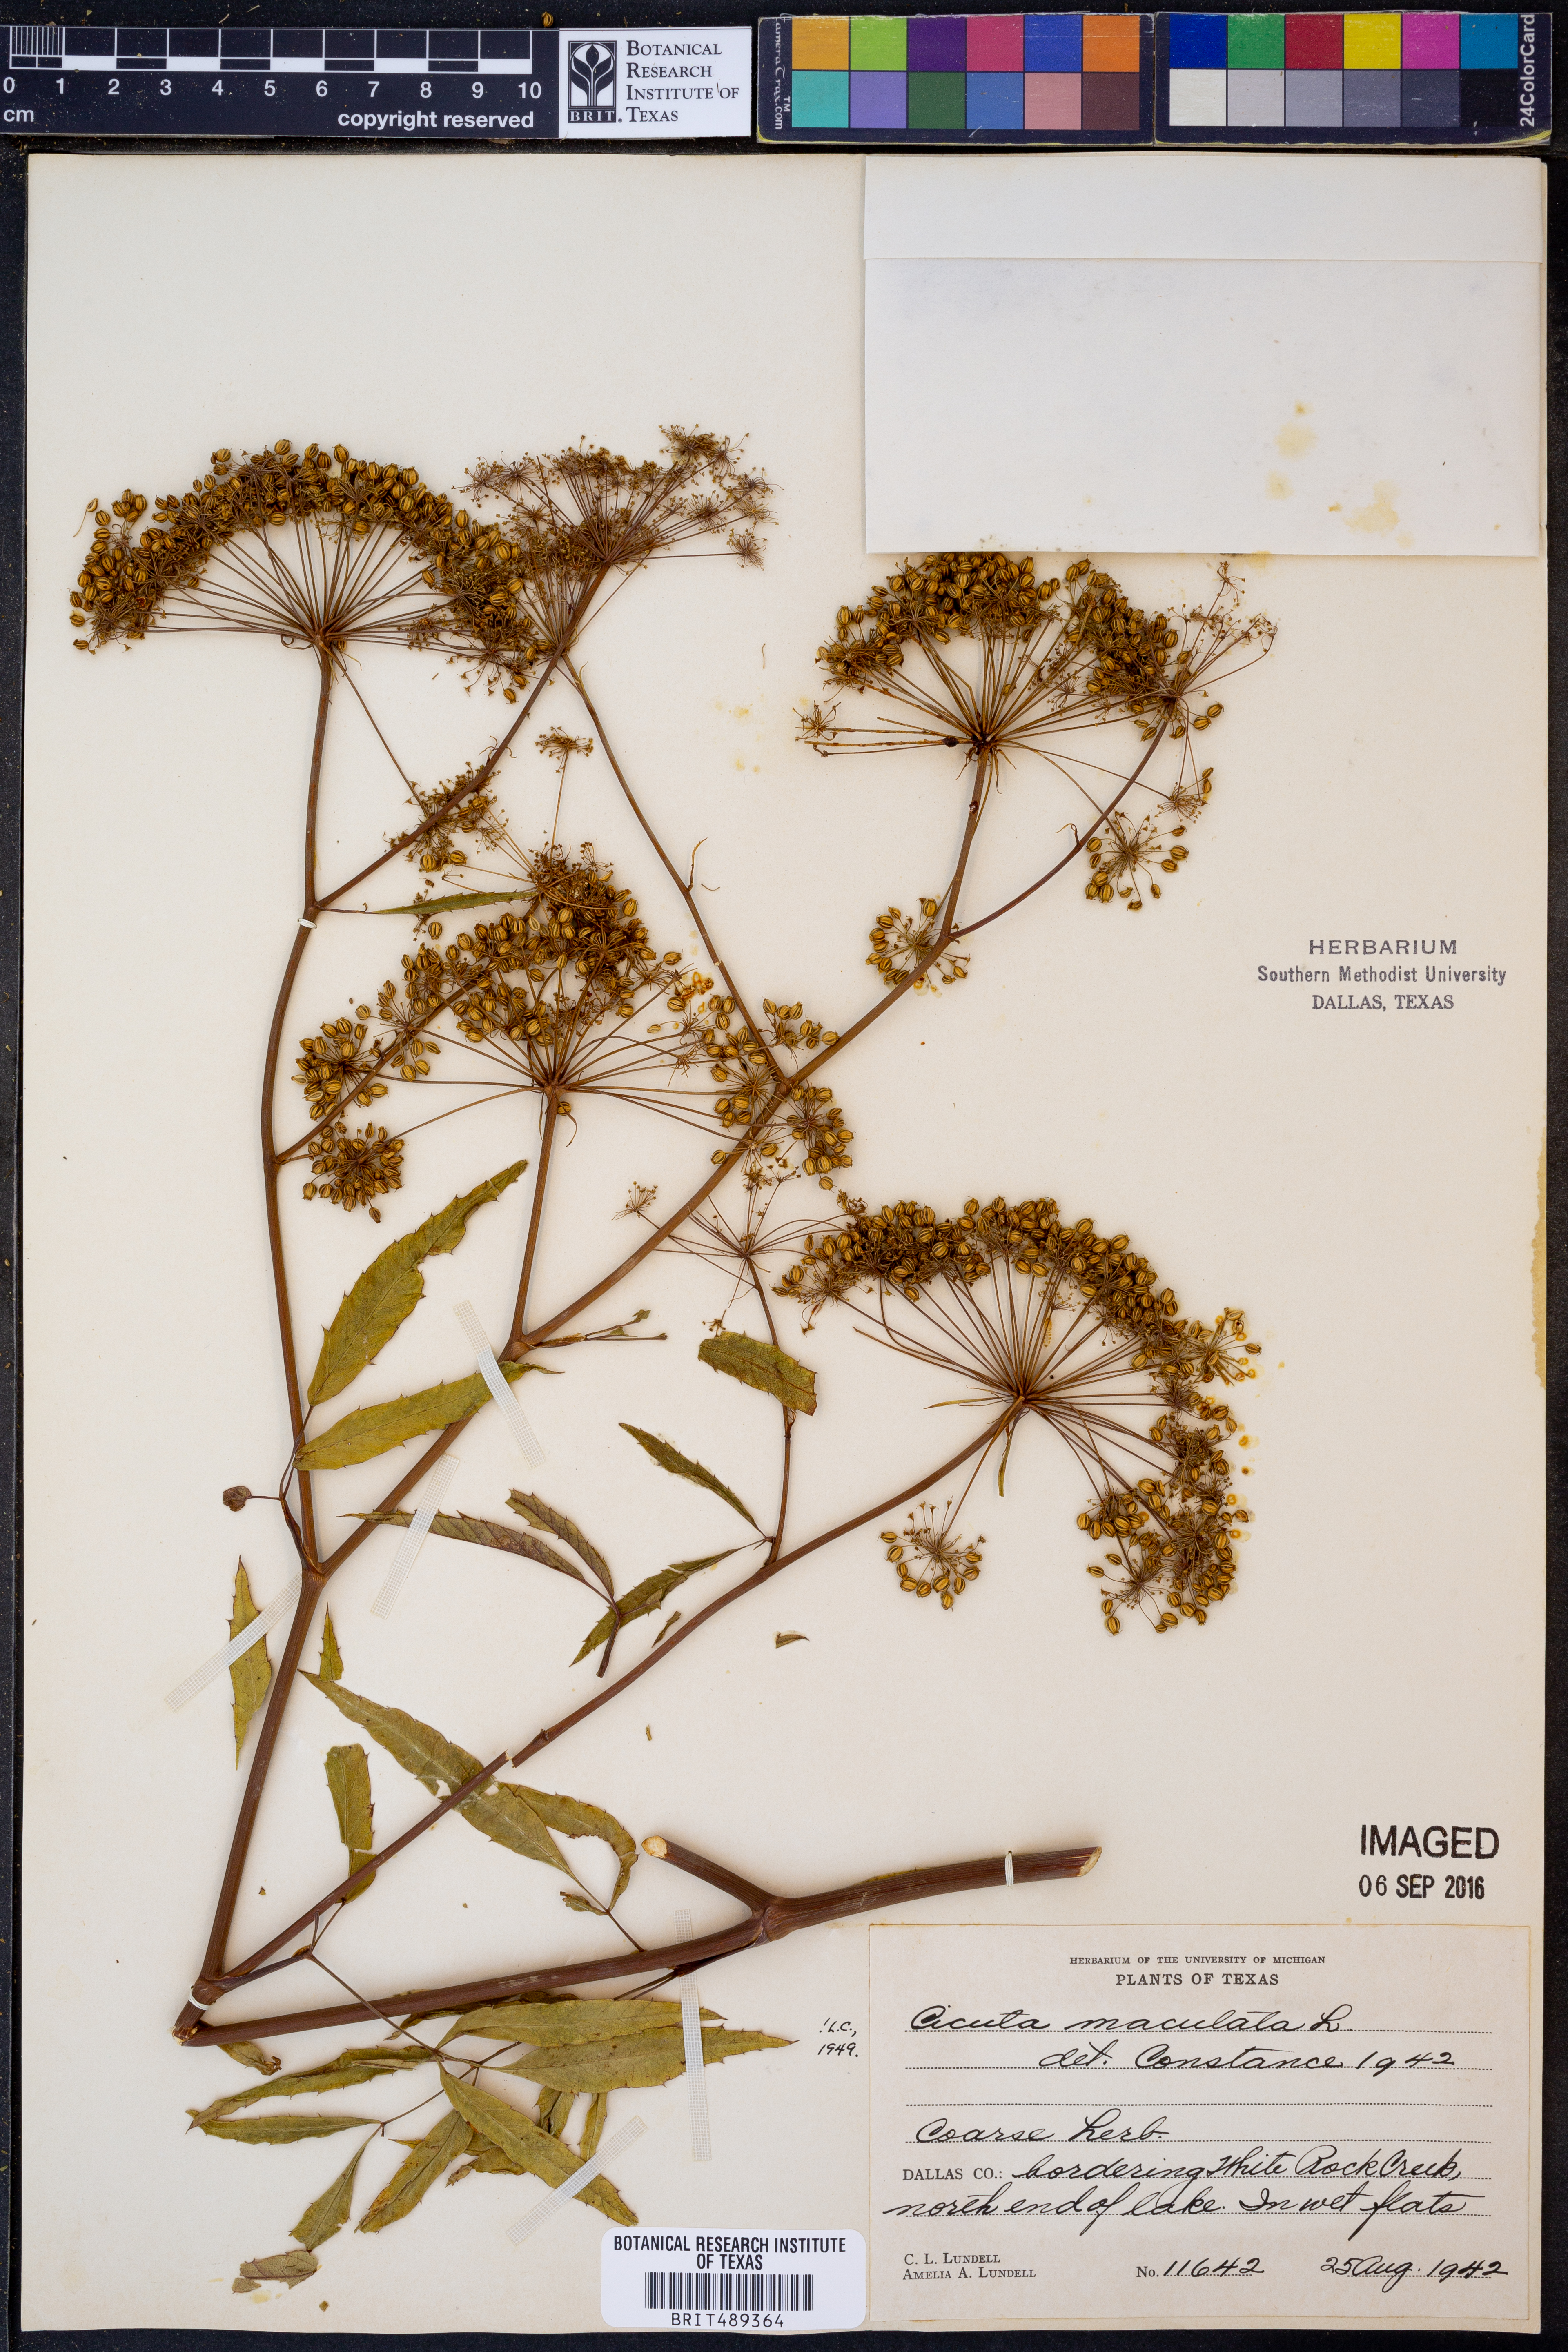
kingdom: Plantae
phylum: Tracheophyta
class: Magnoliopsida
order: Apiales
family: Apiaceae
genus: Cicuta
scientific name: Cicuta maculata
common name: Spotted cowbane
